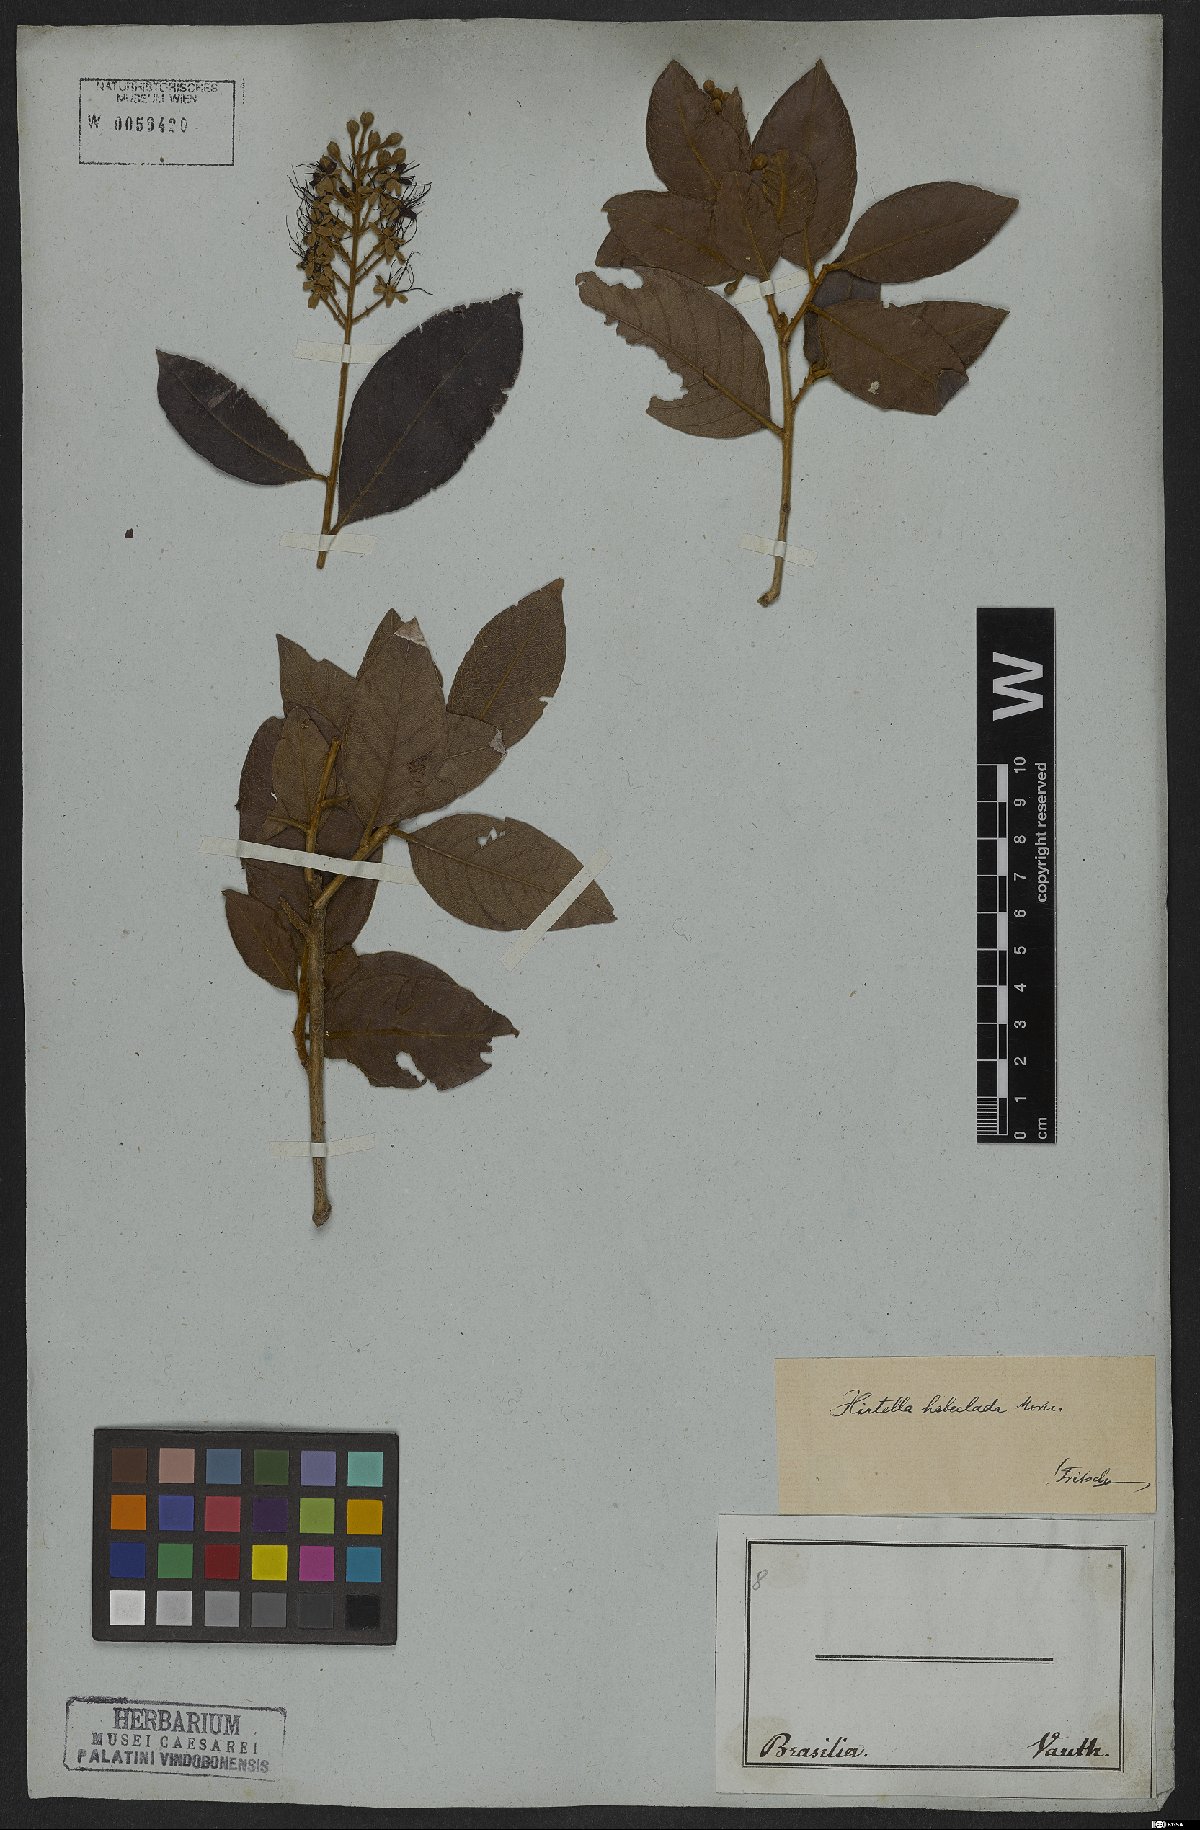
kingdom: Plantae
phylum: Tracheophyta
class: Magnoliopsida
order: Malpighiales
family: Chrysobalanaceae
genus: Hirtella
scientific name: Hirtella hebeclada
